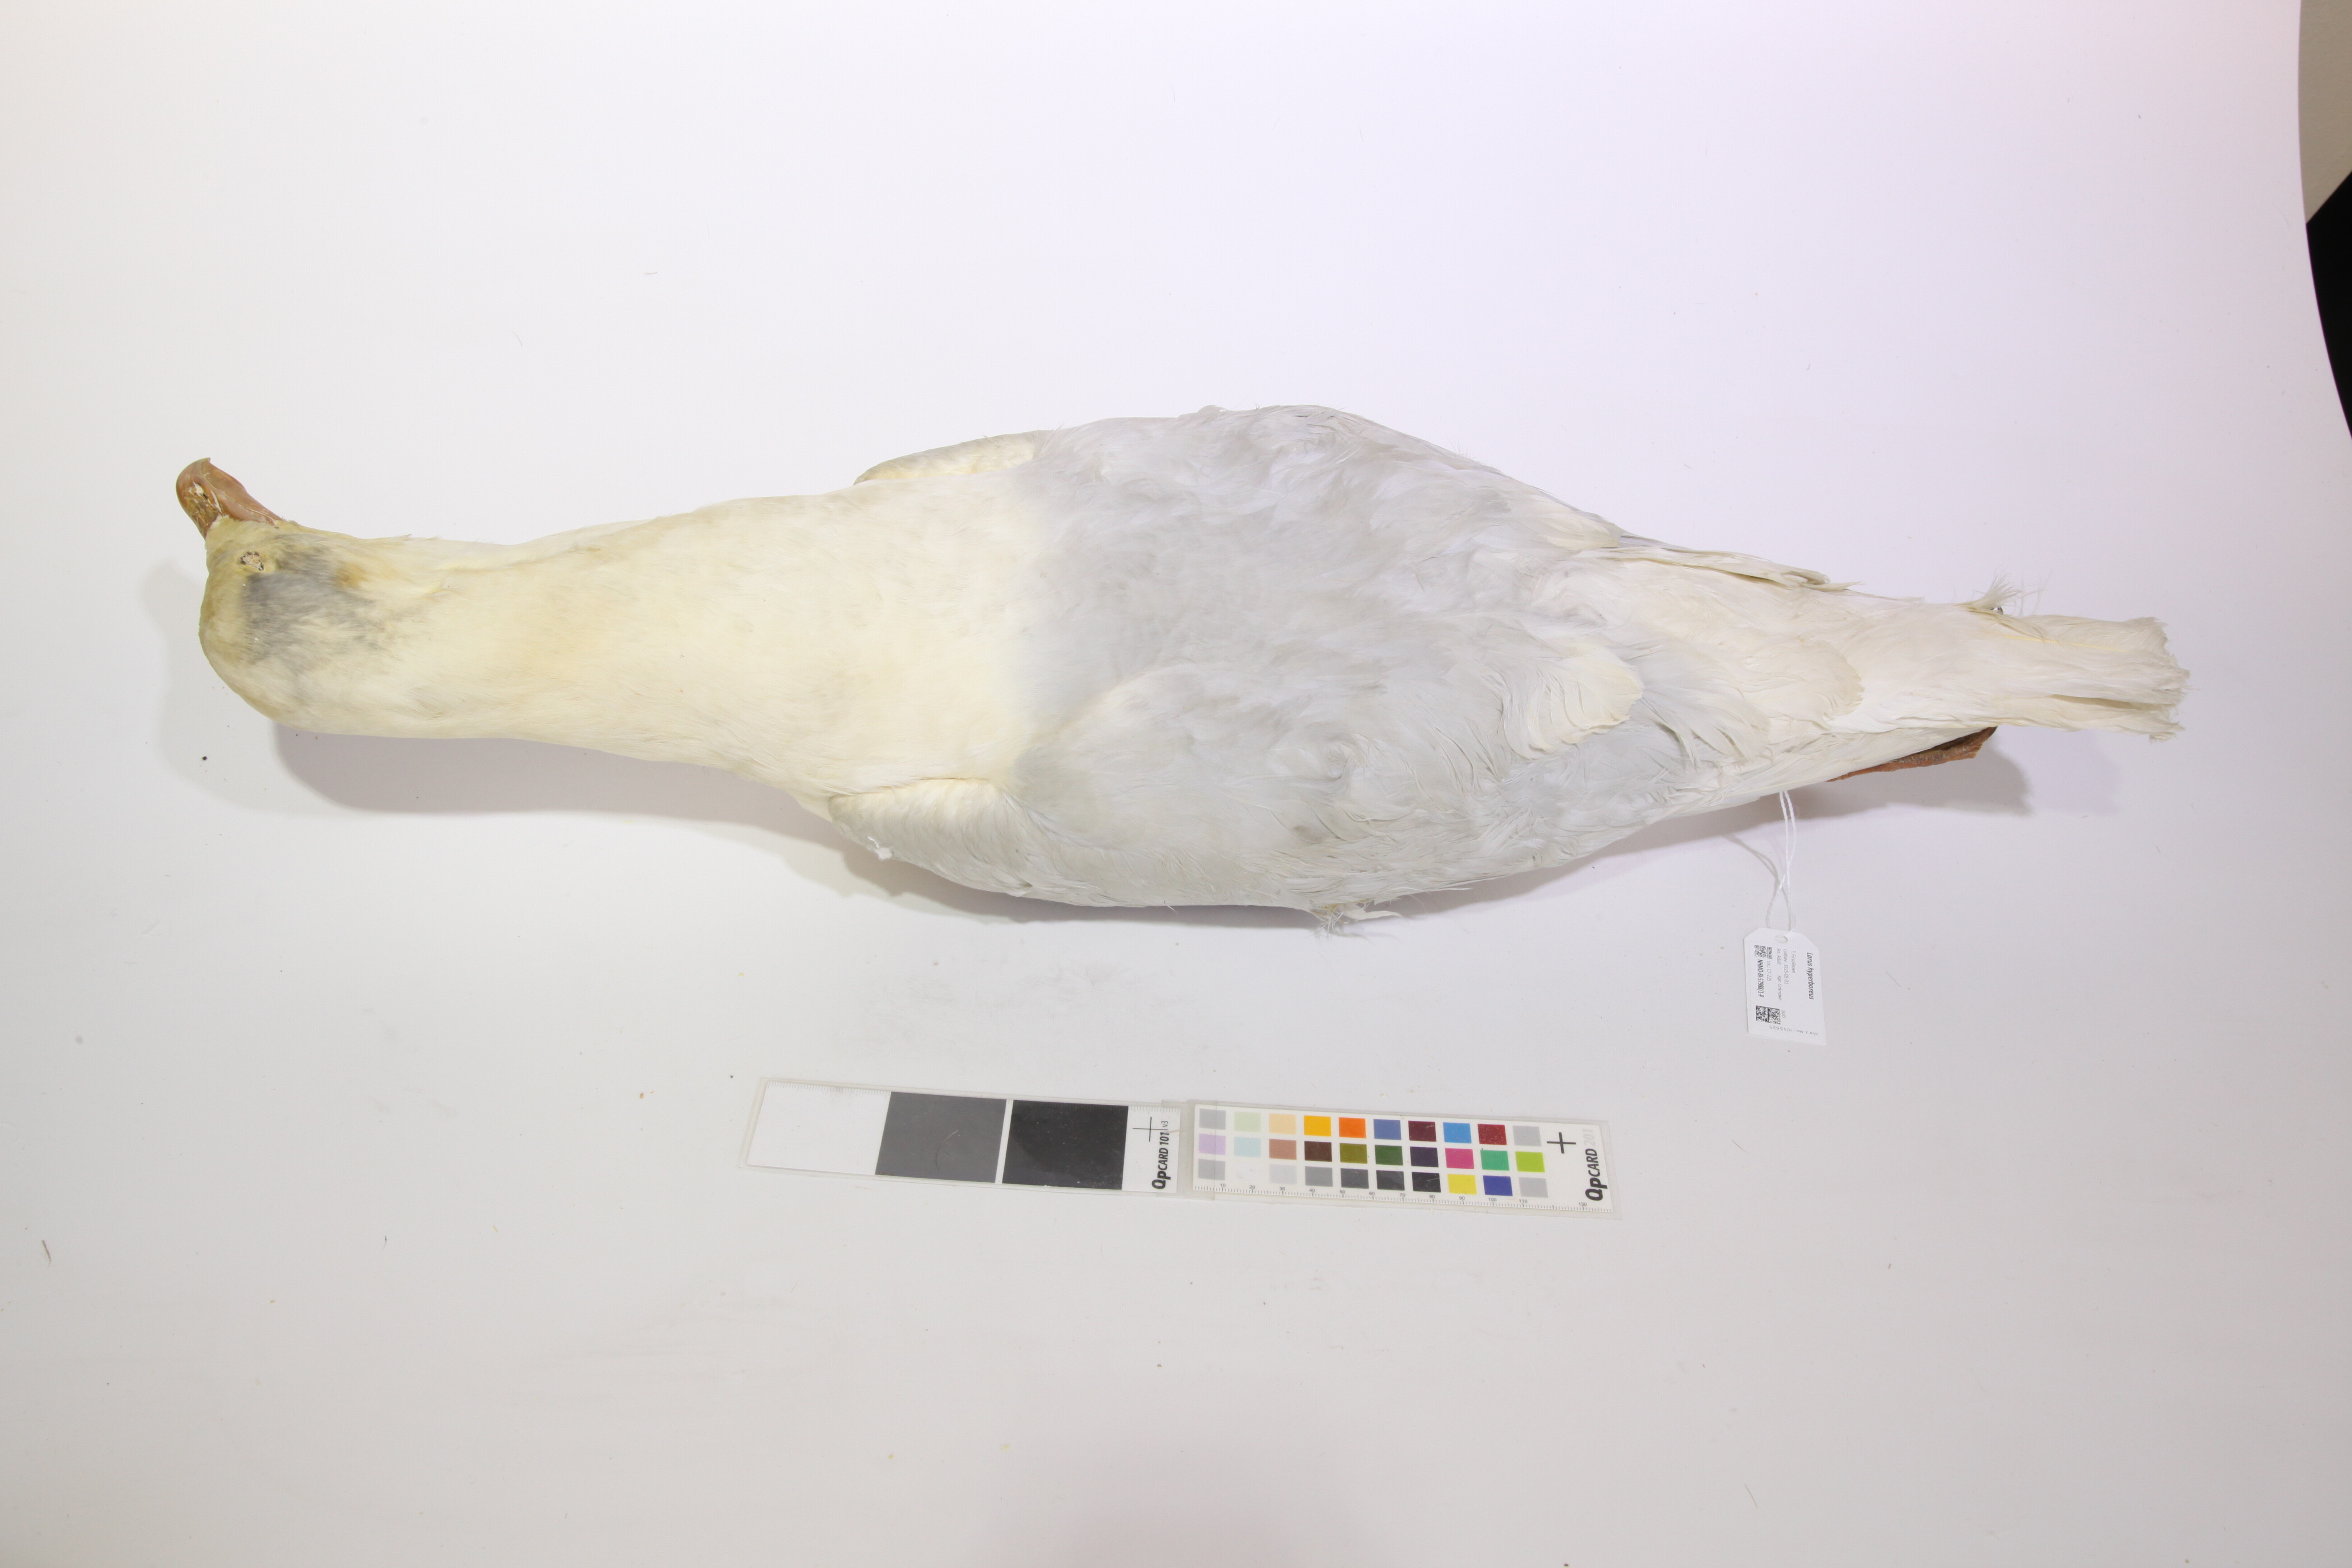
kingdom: Animalia
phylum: Chordata
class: Aves
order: Charadriiformes
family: Laridae
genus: Larus
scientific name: Larus hyperboreus
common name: Glaucous gull
